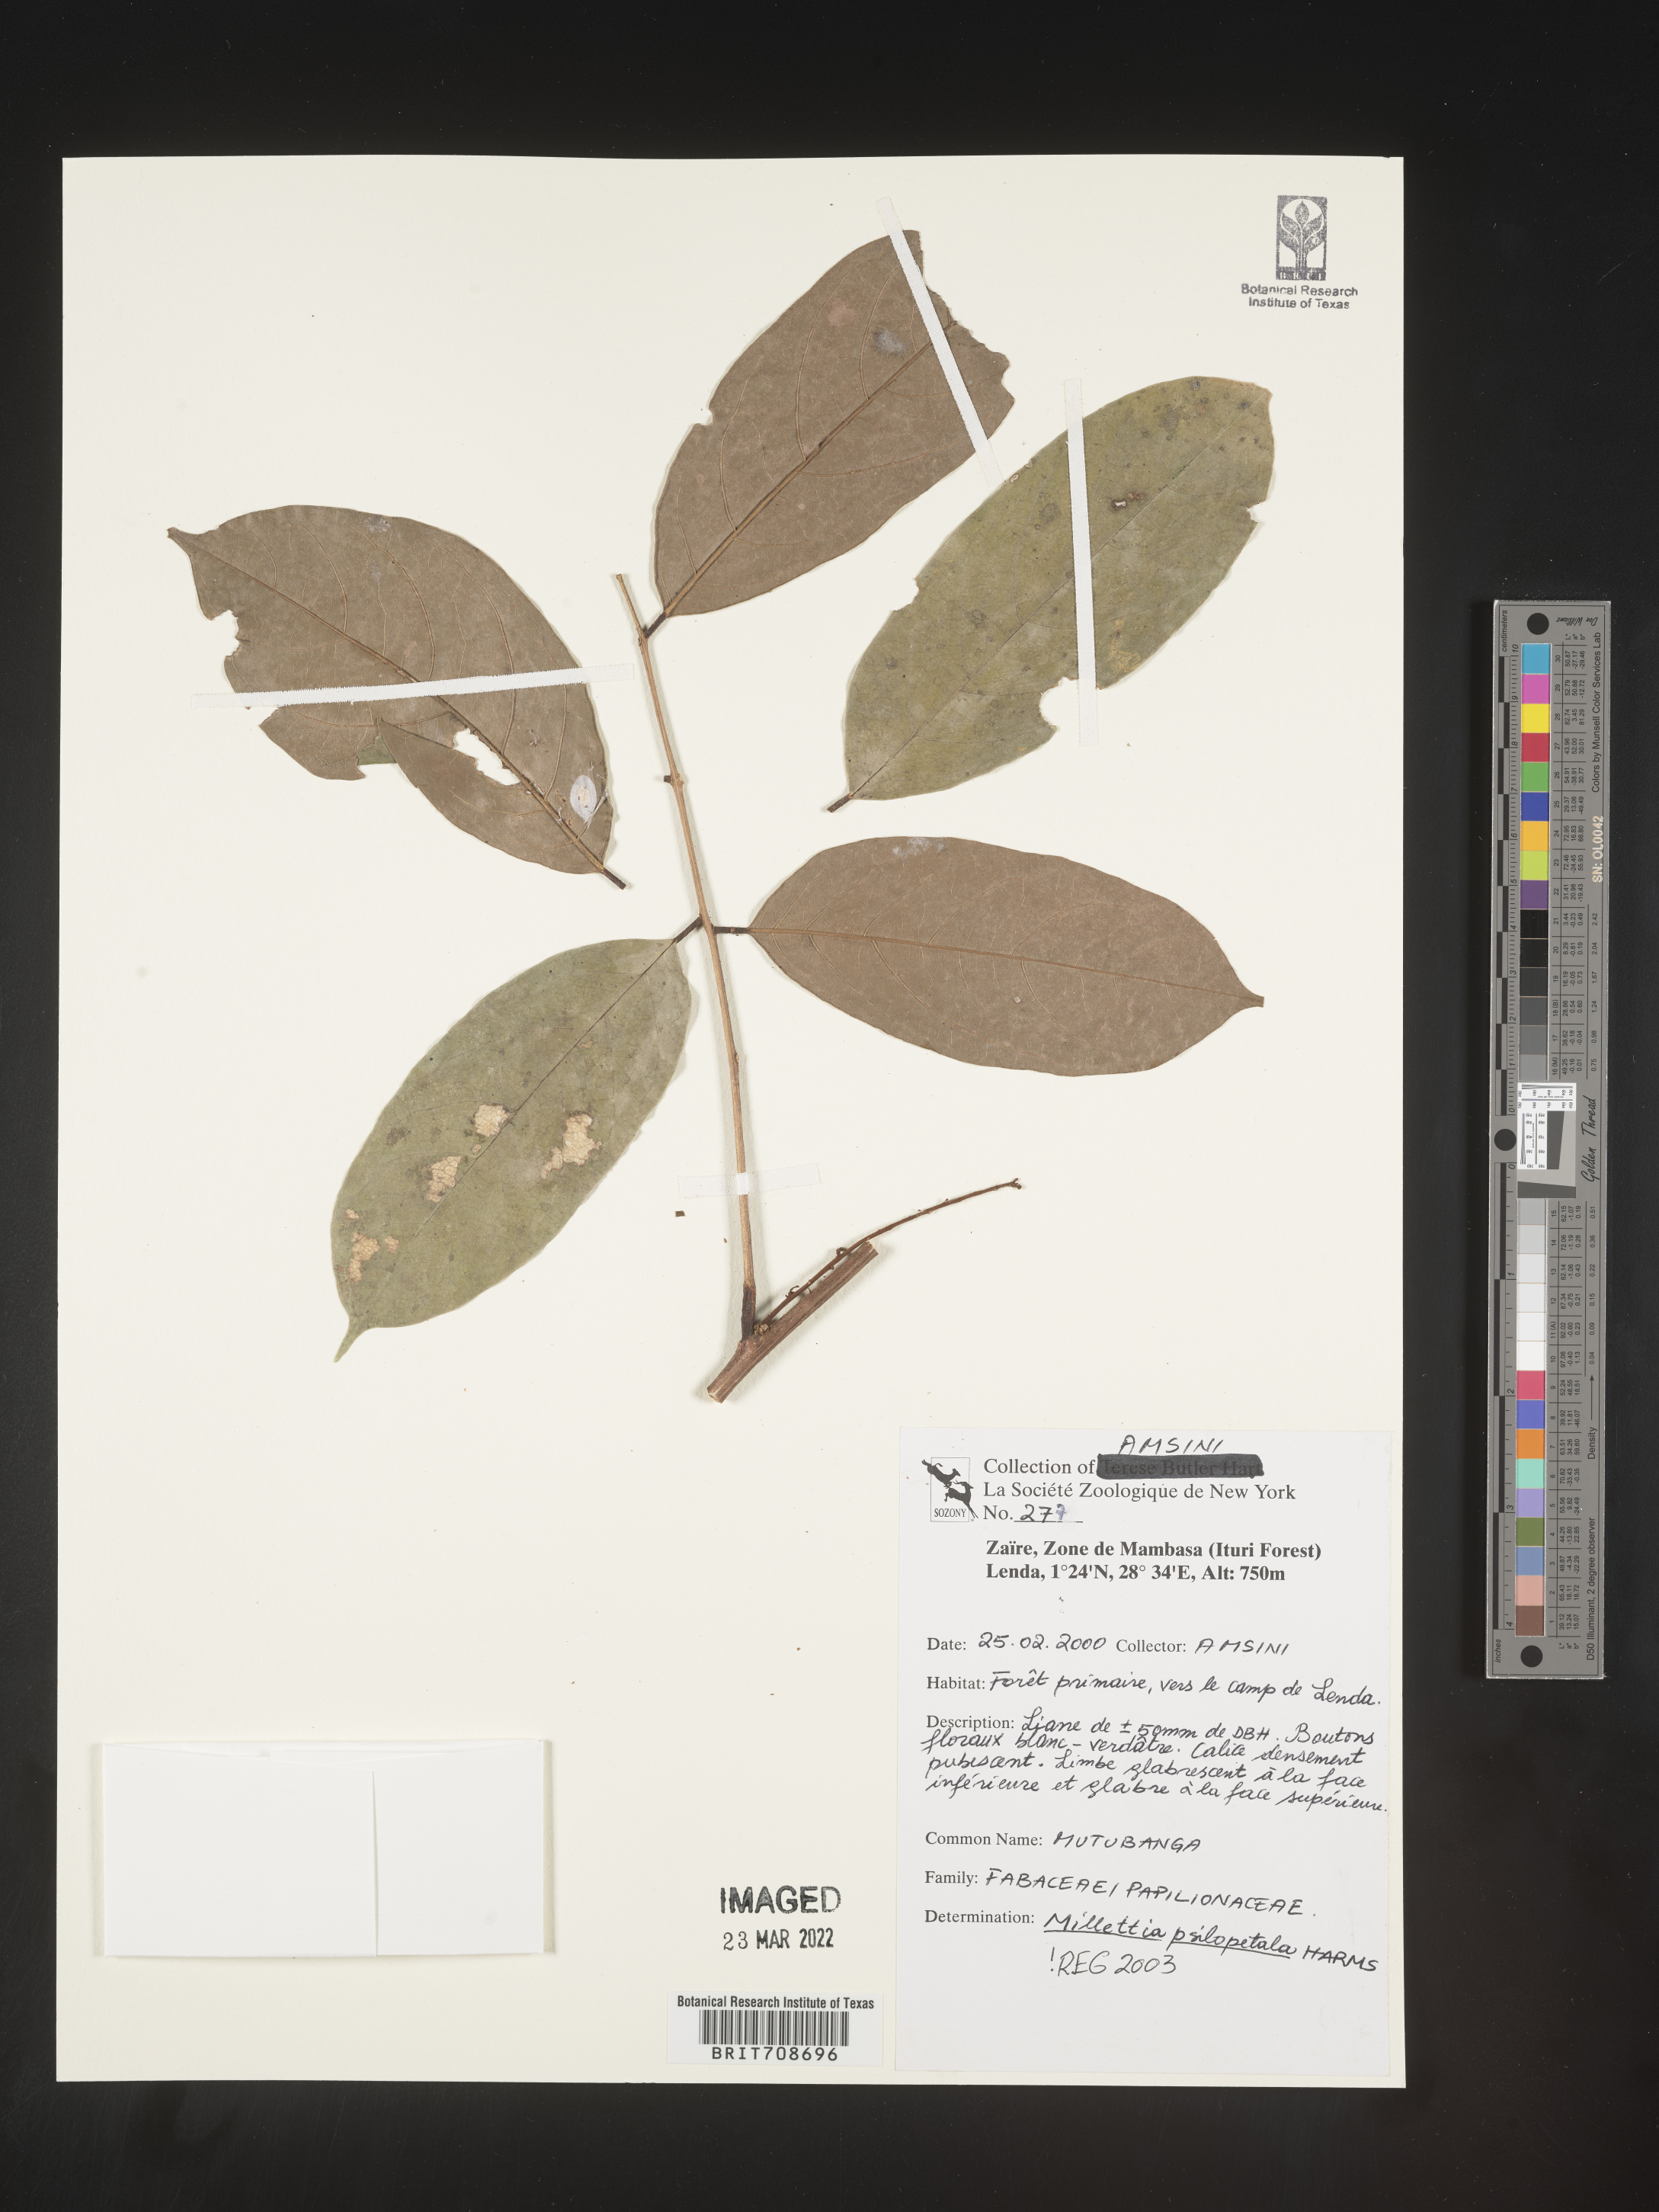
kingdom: Plantae
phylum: Tracheophyta
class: Magnoliopsida
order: Fabales
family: Fabaceae
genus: Millettia
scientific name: Millettia
